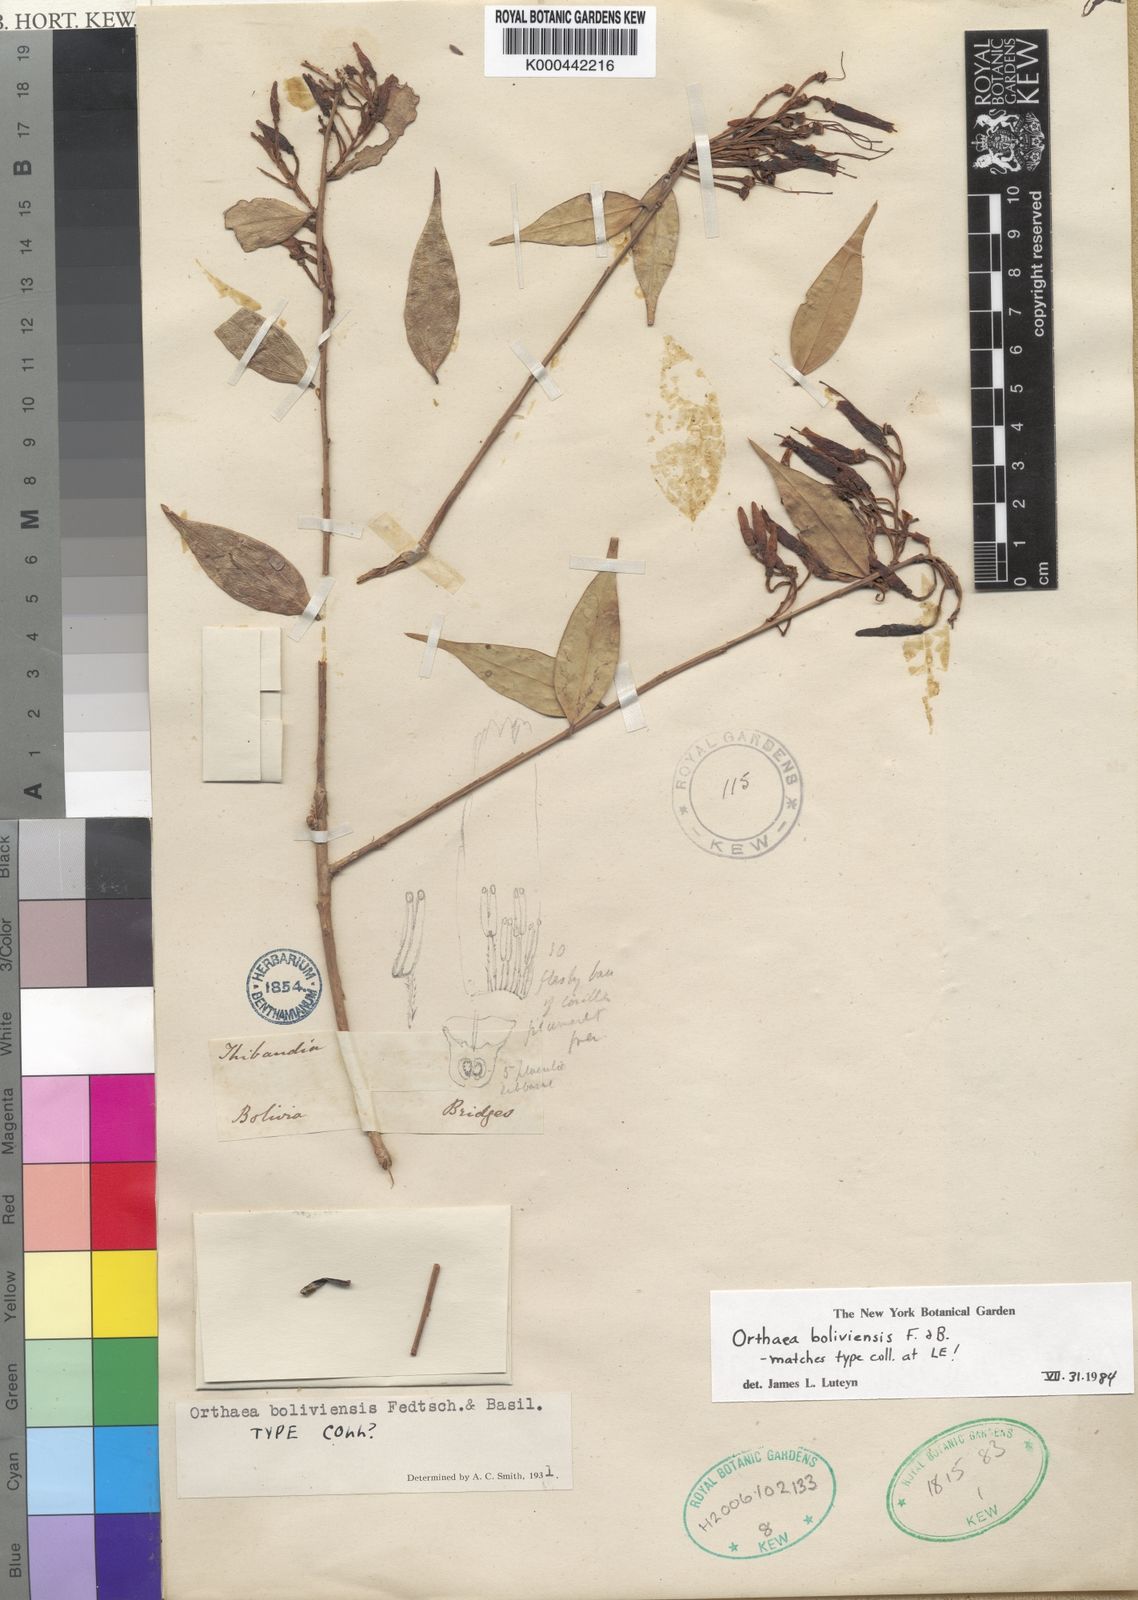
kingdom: Plantae
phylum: Tracheophyta
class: Magnoliopsida
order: Ericales
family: Ericaceae
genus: Orthaea
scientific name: Orthaea boliviensis
